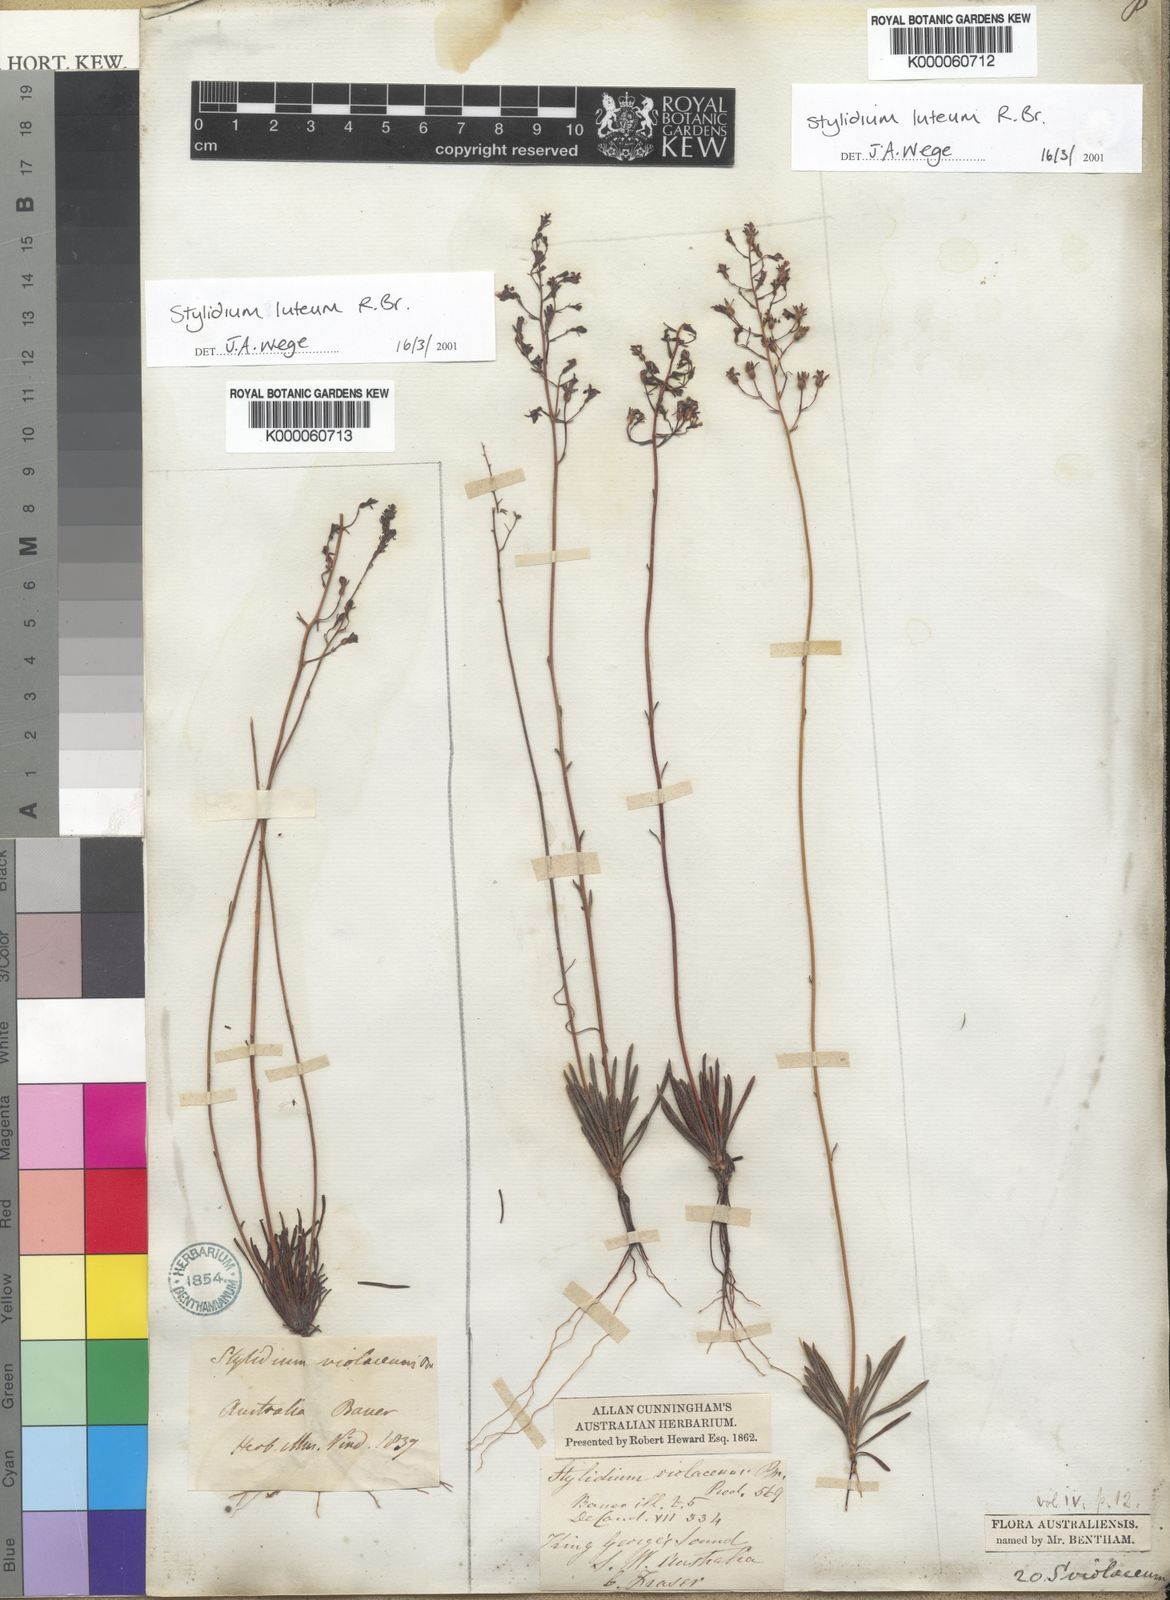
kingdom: Plantae
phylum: Tracheophyta
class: Magnoliopsida
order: Asterales
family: Stylidiaceae
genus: Stylidium
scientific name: Stylidium luteum
